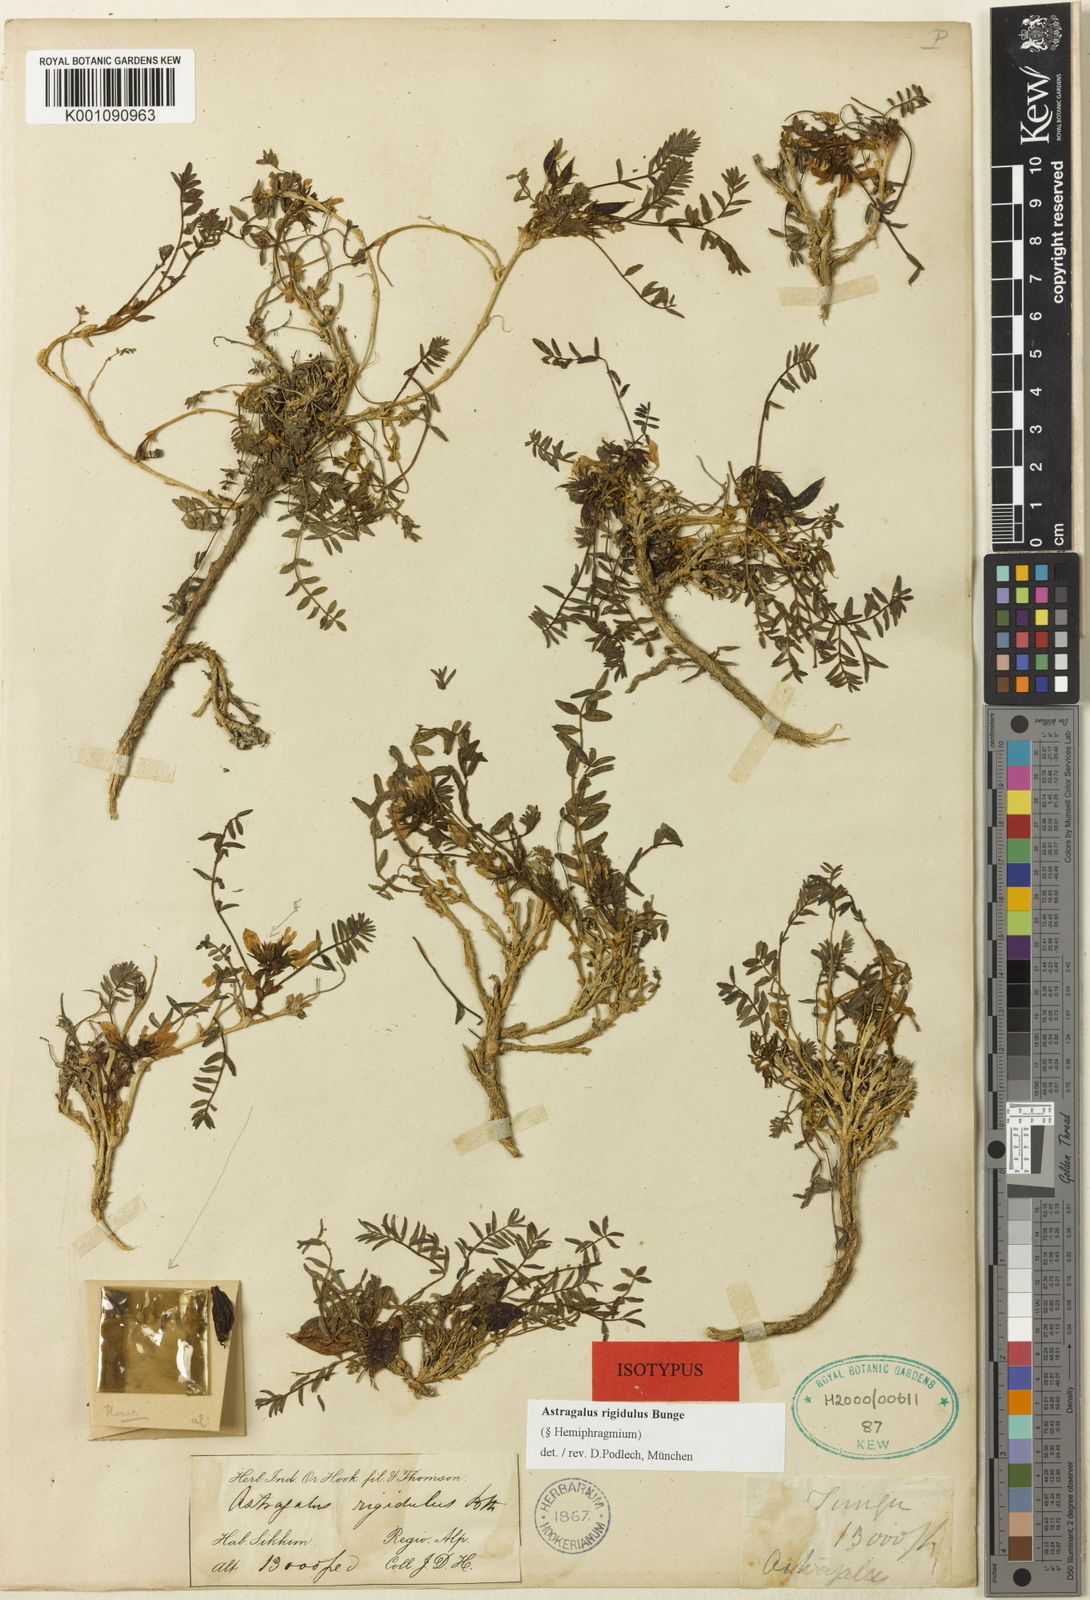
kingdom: Plantae
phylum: Tracheophyta
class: Magnoliopsida
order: Fabales
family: Fabaceae
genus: Astragalus
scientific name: Astragalus
